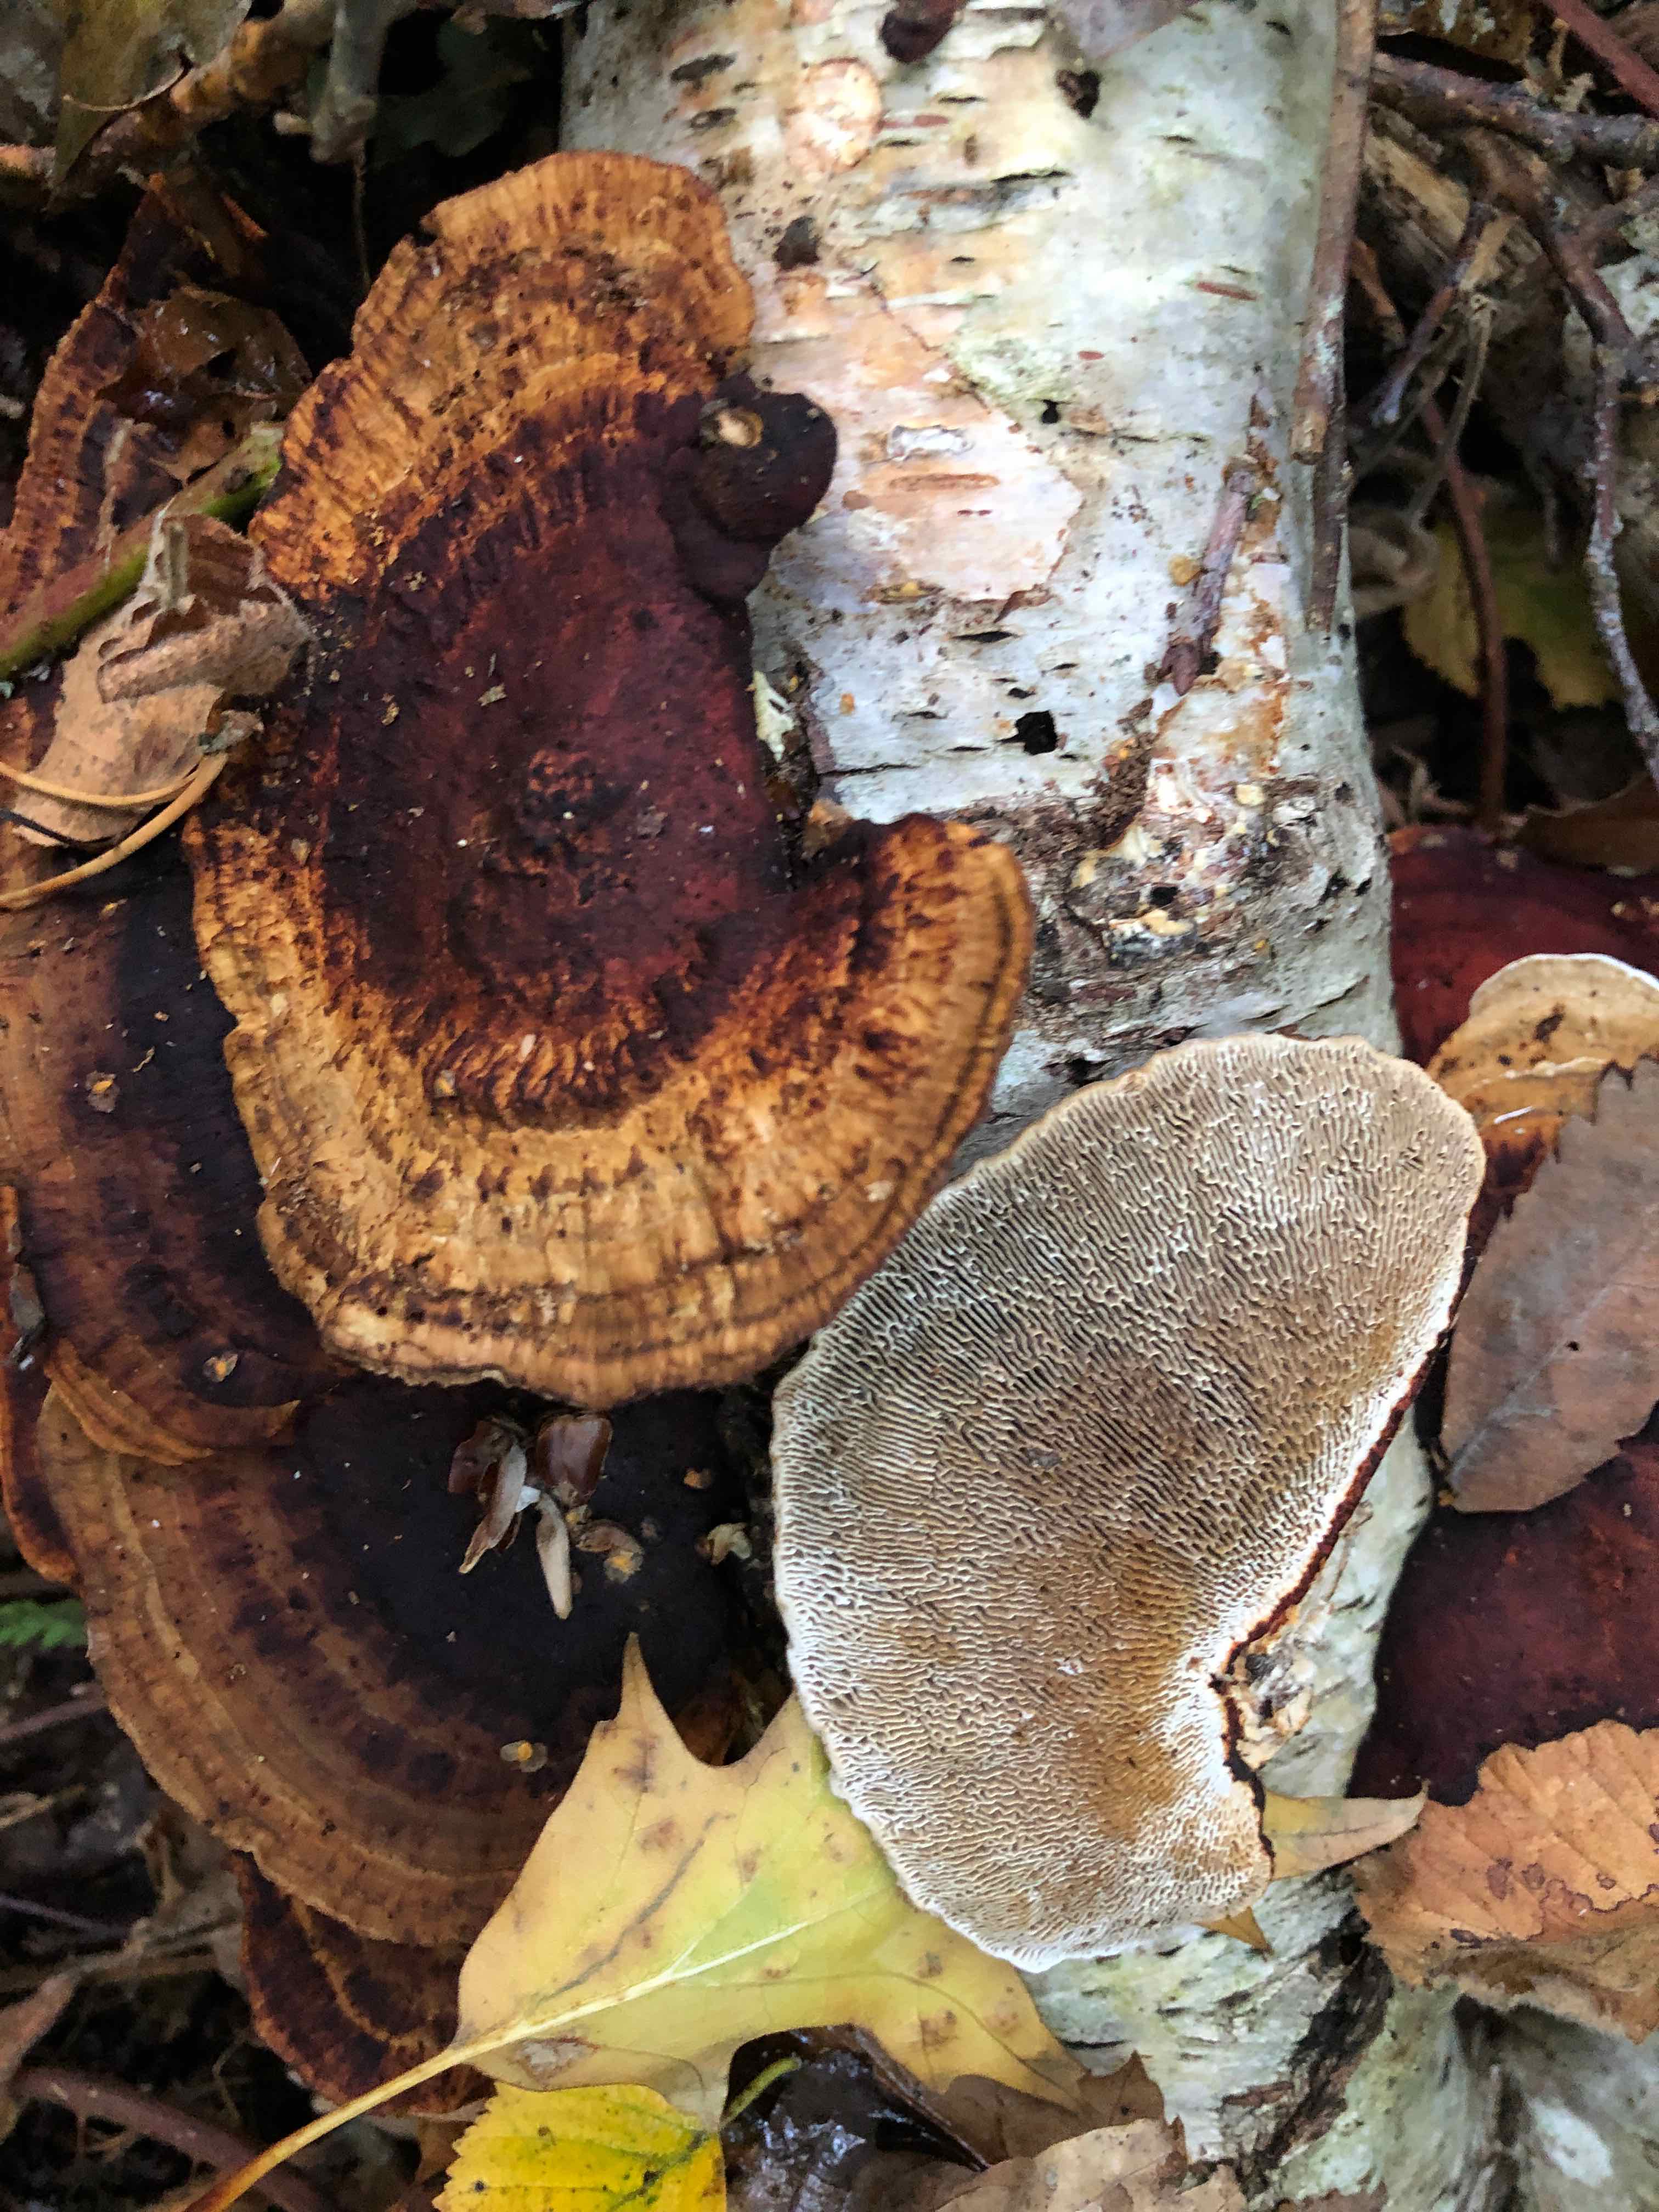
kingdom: Fungi
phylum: Basidiomycota
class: Agaricomycetes
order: Polyporales
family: Polyporaceae
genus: Daedaleopsis
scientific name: Daedaleopsis confragosa
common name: rødmende læderporesvamp
